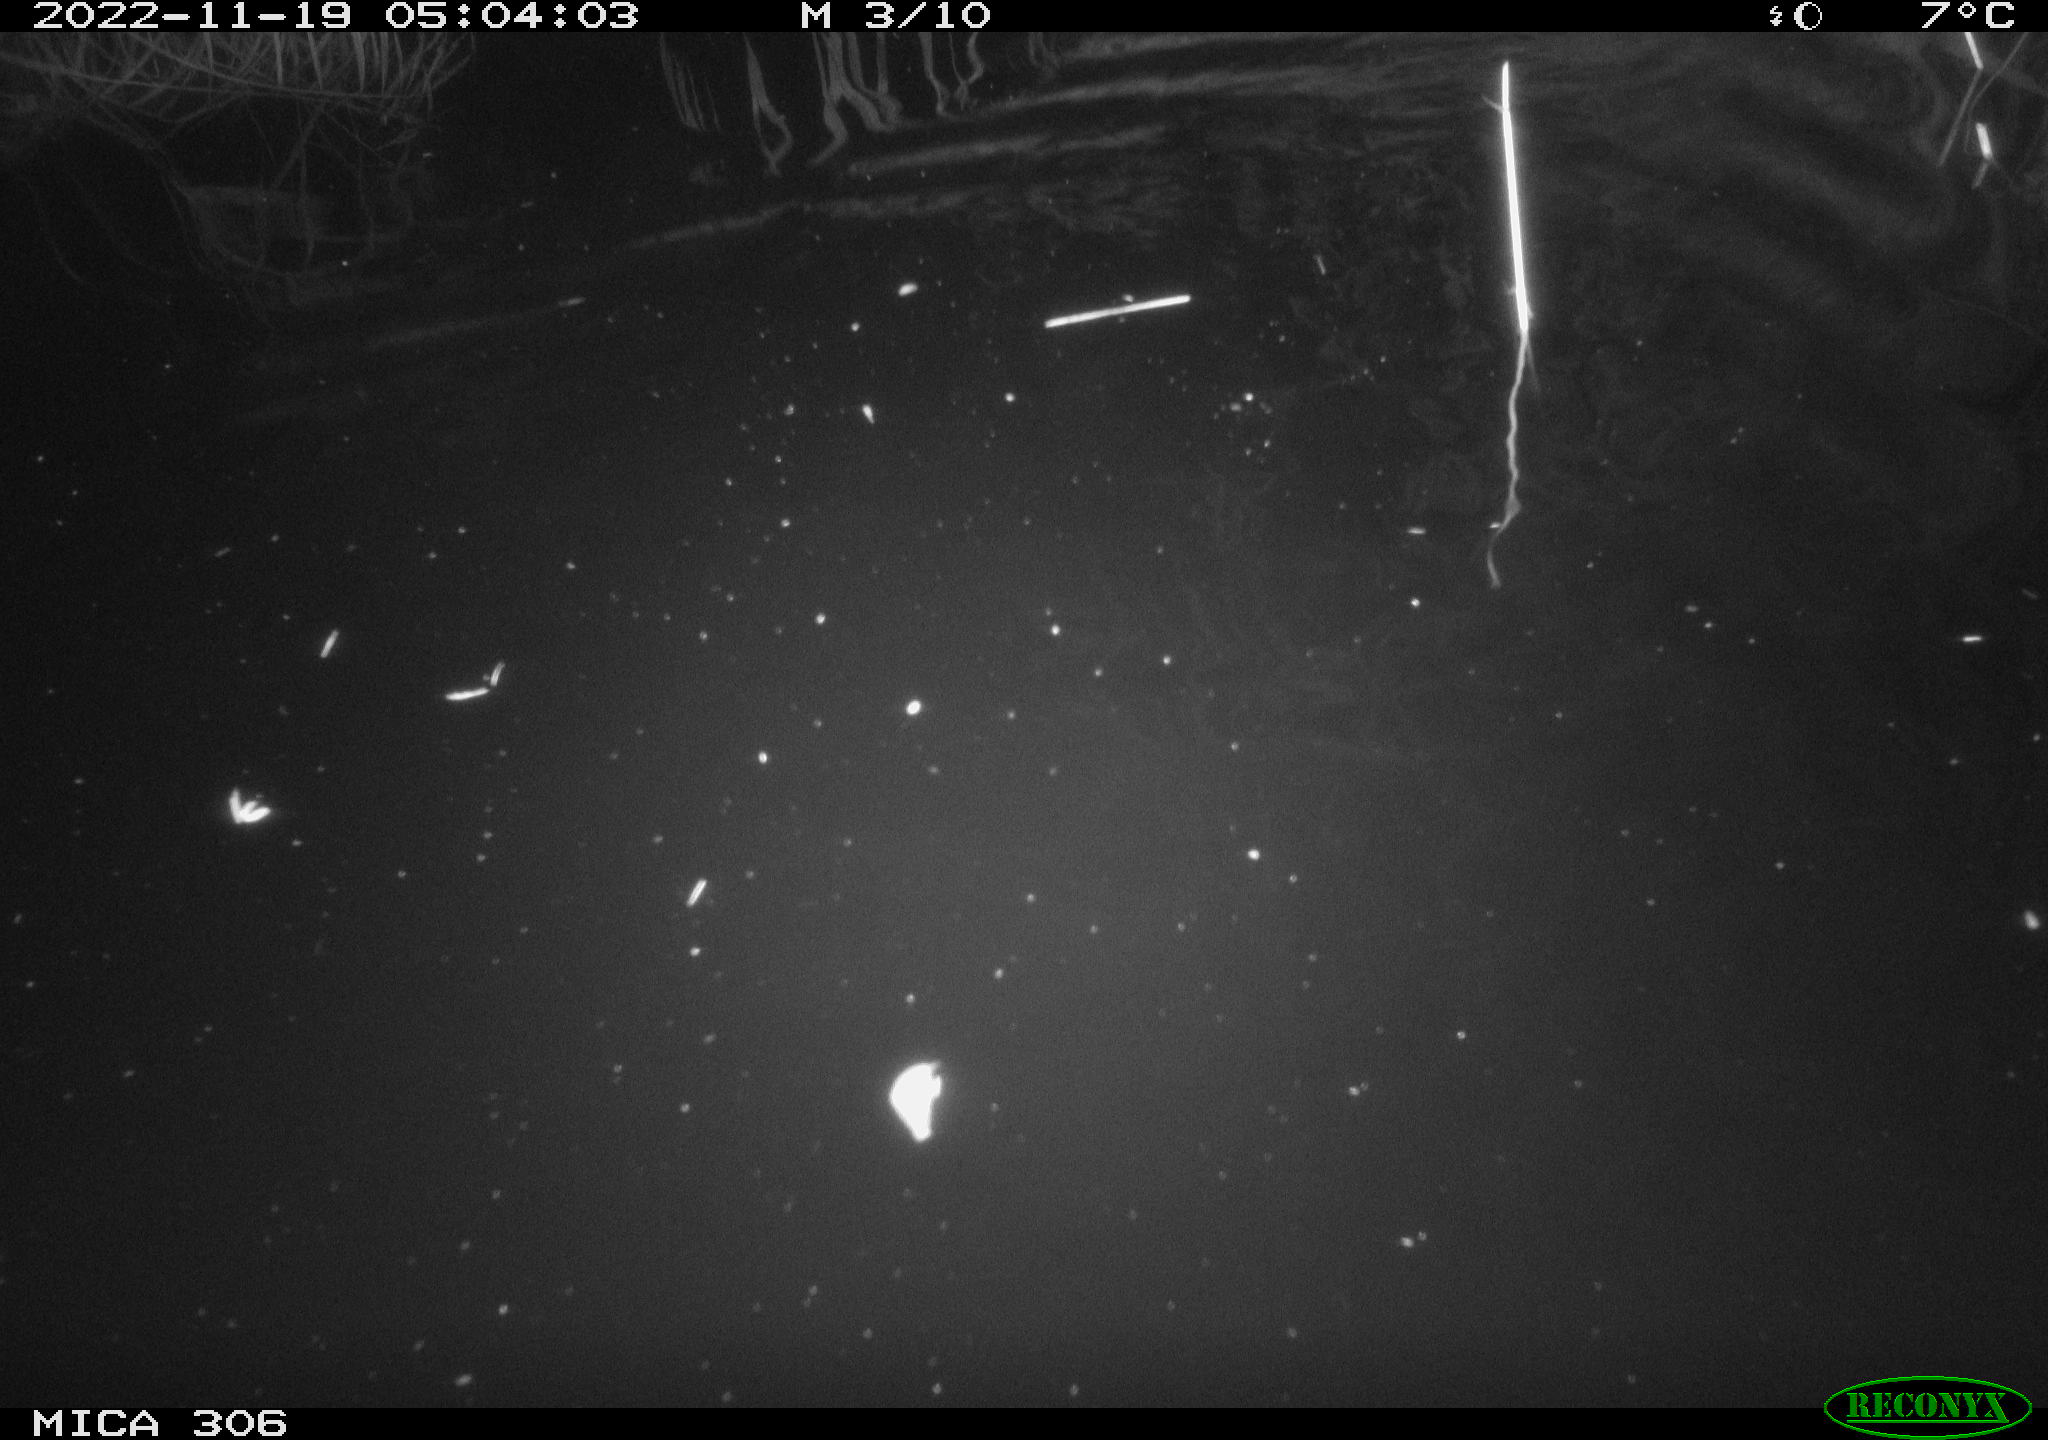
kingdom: Animalia
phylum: Chordata
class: Mammalia
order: Rodentia
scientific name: Rodentia
